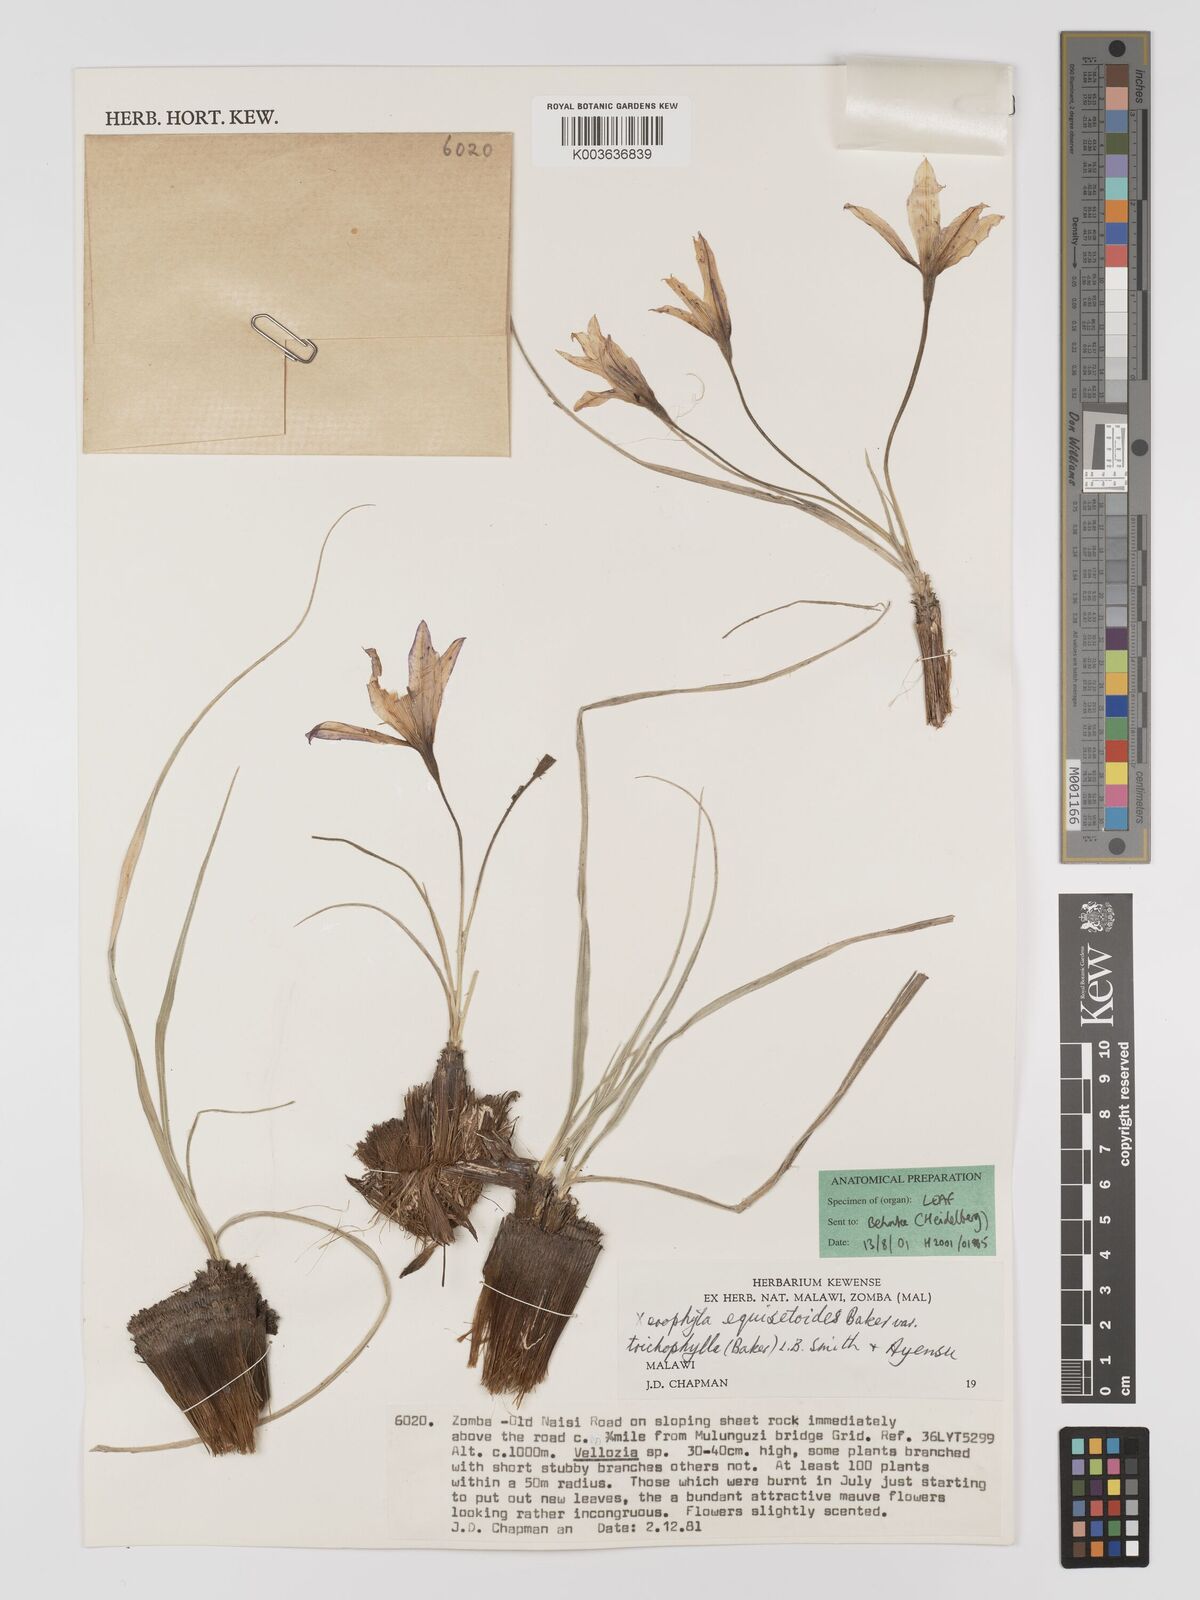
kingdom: Plantae
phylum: Tracheophyta
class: Liliopsida
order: Pandanales
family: Velloziaceae
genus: Xerophyta
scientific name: Xerophyta trichophylla
